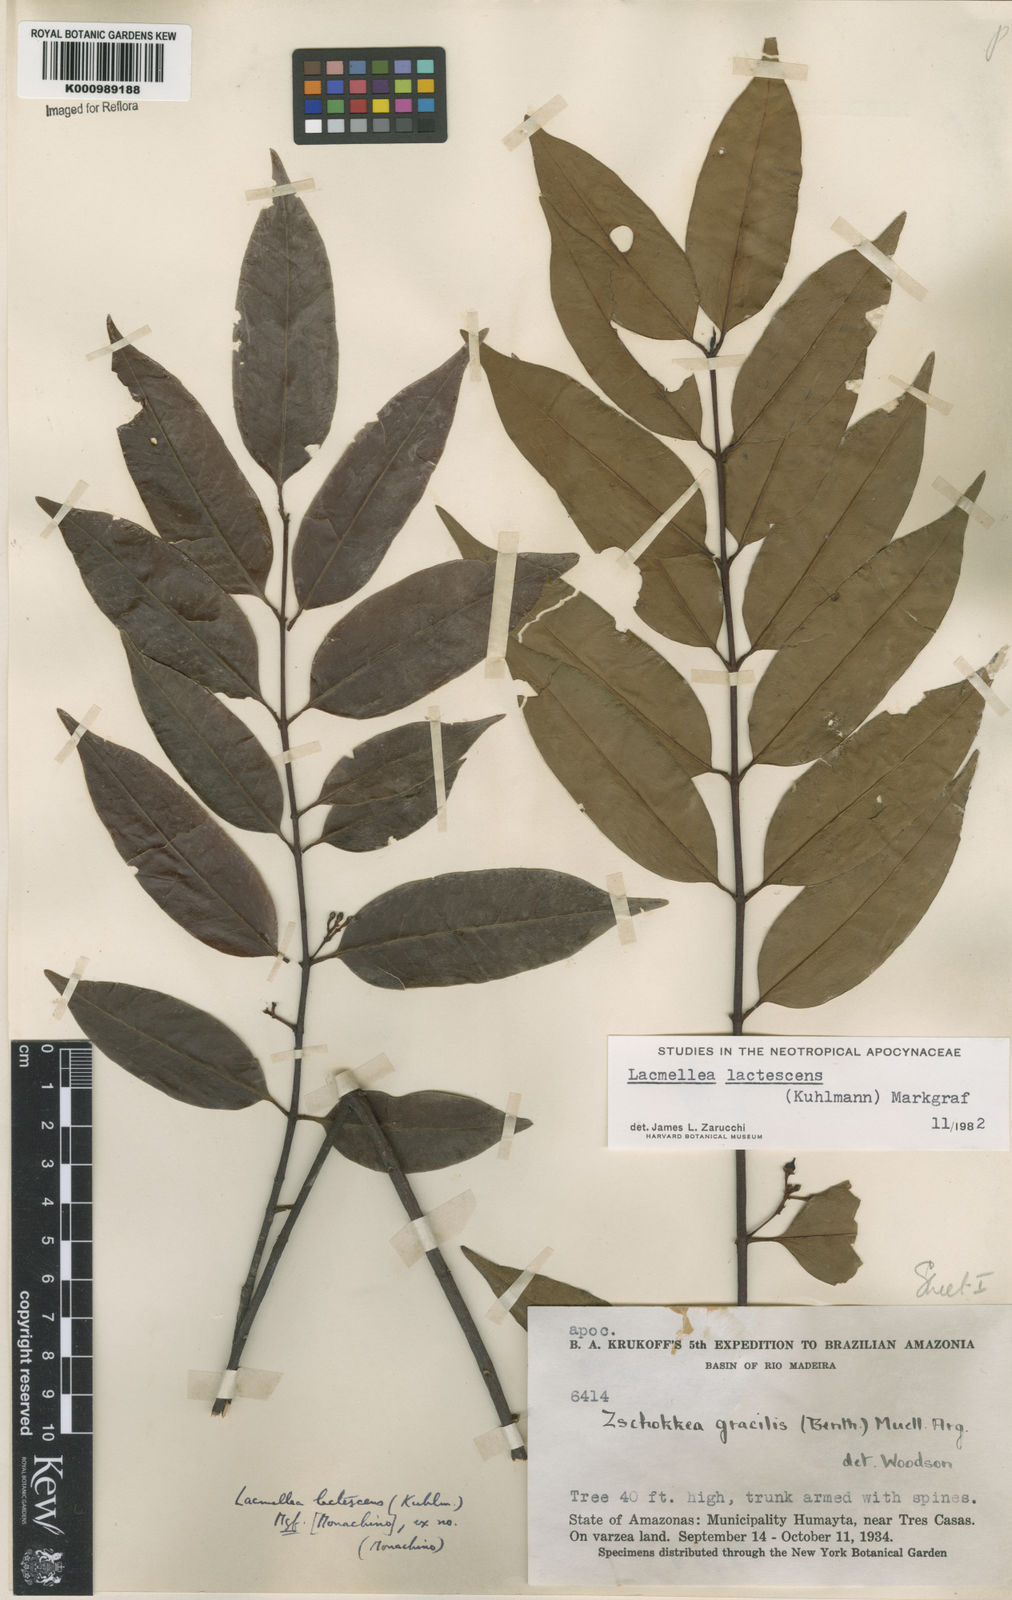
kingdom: Plantae
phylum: Tracheophyta
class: Magnoliopsida
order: Gentianales
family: Apocynaceae
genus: Lacmellea
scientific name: Lacmellea
